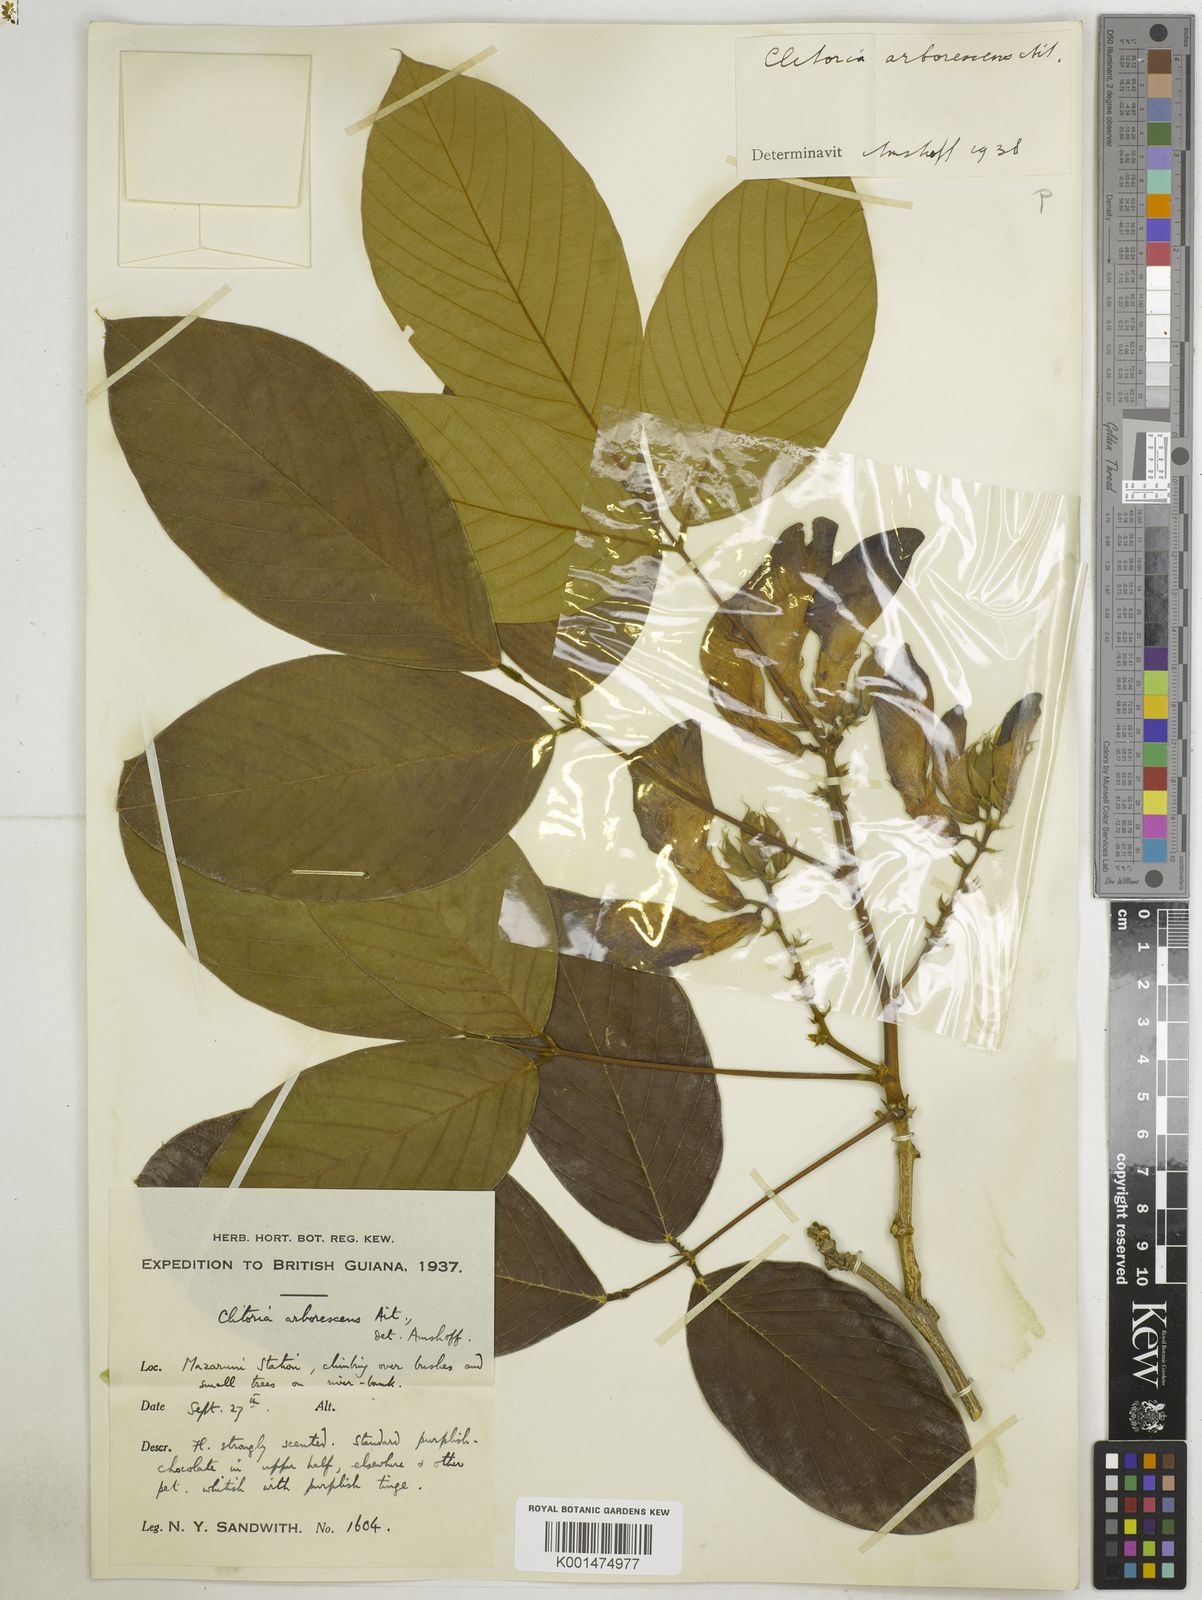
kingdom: Plantae
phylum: Tracheophyta
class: Magnoliopsida
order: Fabales
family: Fabaceae
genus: Clitoria
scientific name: Clitoria arborescens
